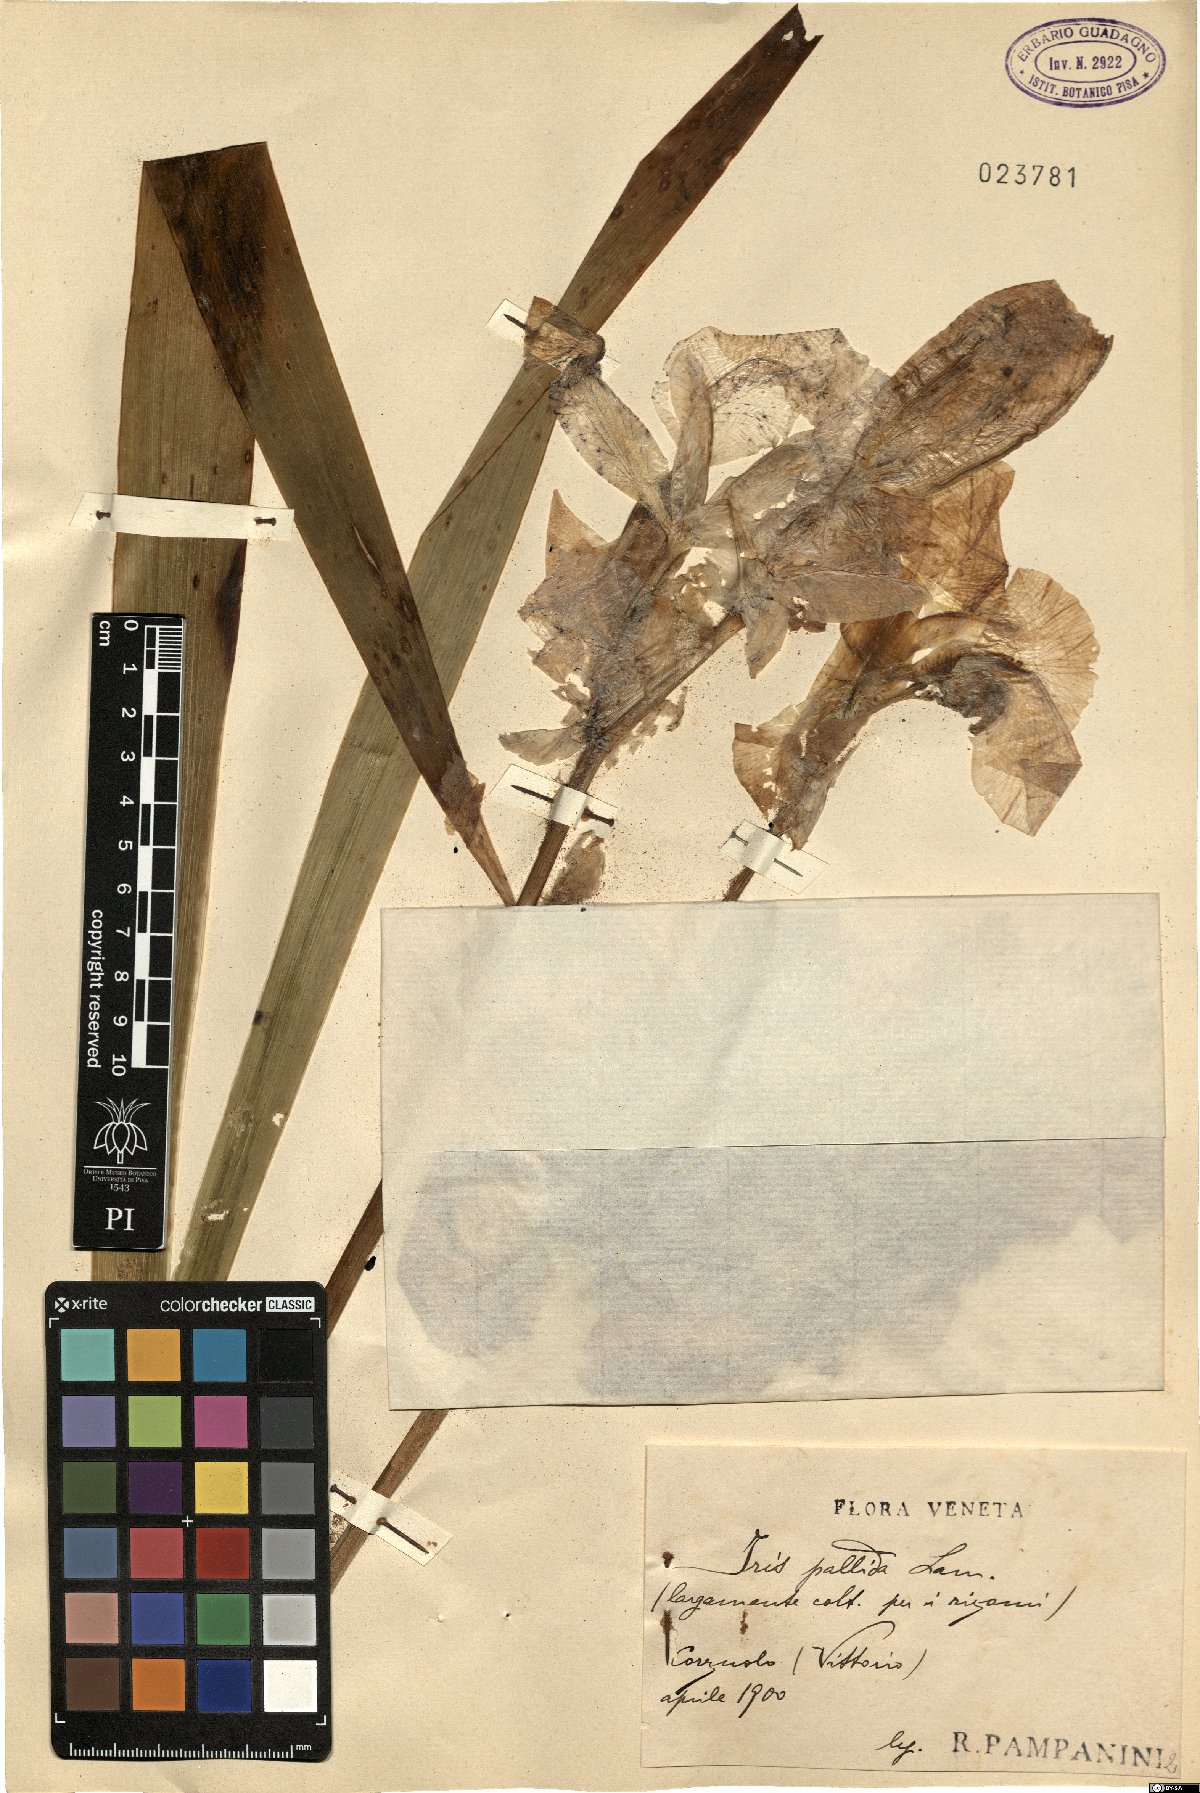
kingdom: Plantae
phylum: Tracheophyta
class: Liliopsida
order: Asparagales
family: Iridaceae
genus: Iris
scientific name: Iris pallida
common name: Sweet iris
